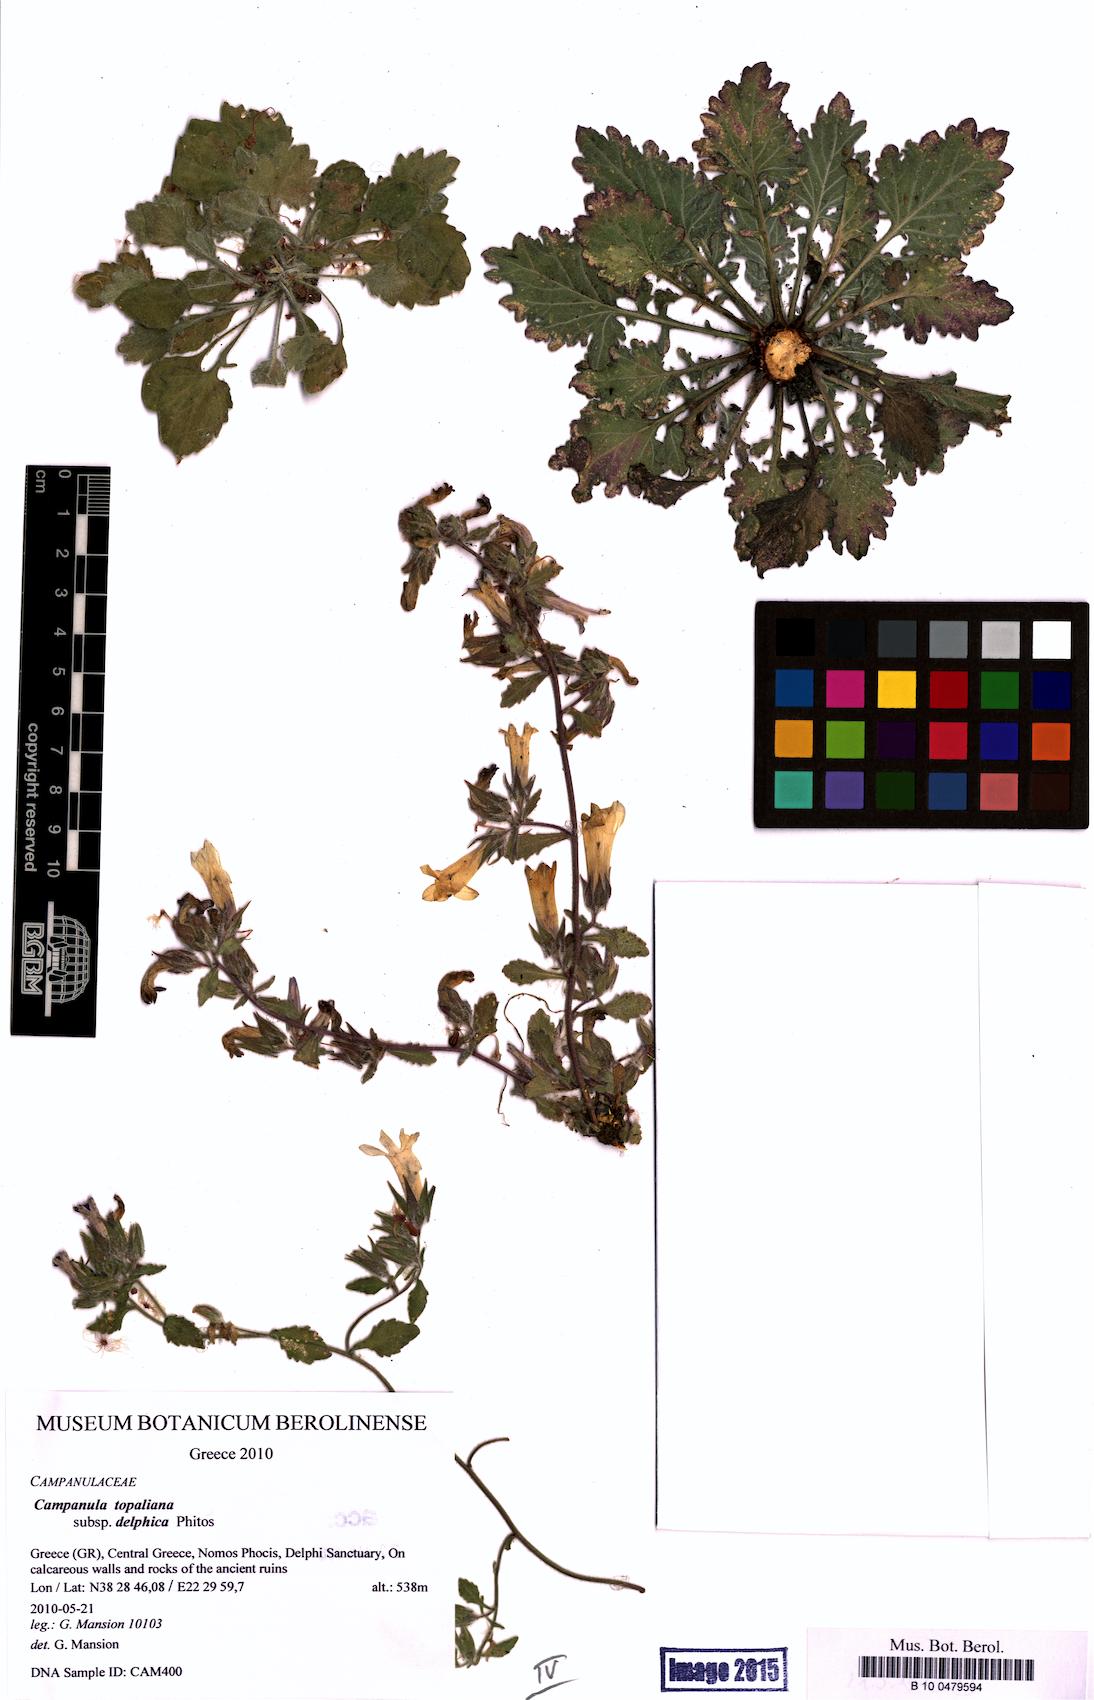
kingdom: Plantae
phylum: Tracheophyta
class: Magnoliopsida
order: Asterales
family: Campanulaceae
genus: Campanula
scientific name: Campanula topaliana
